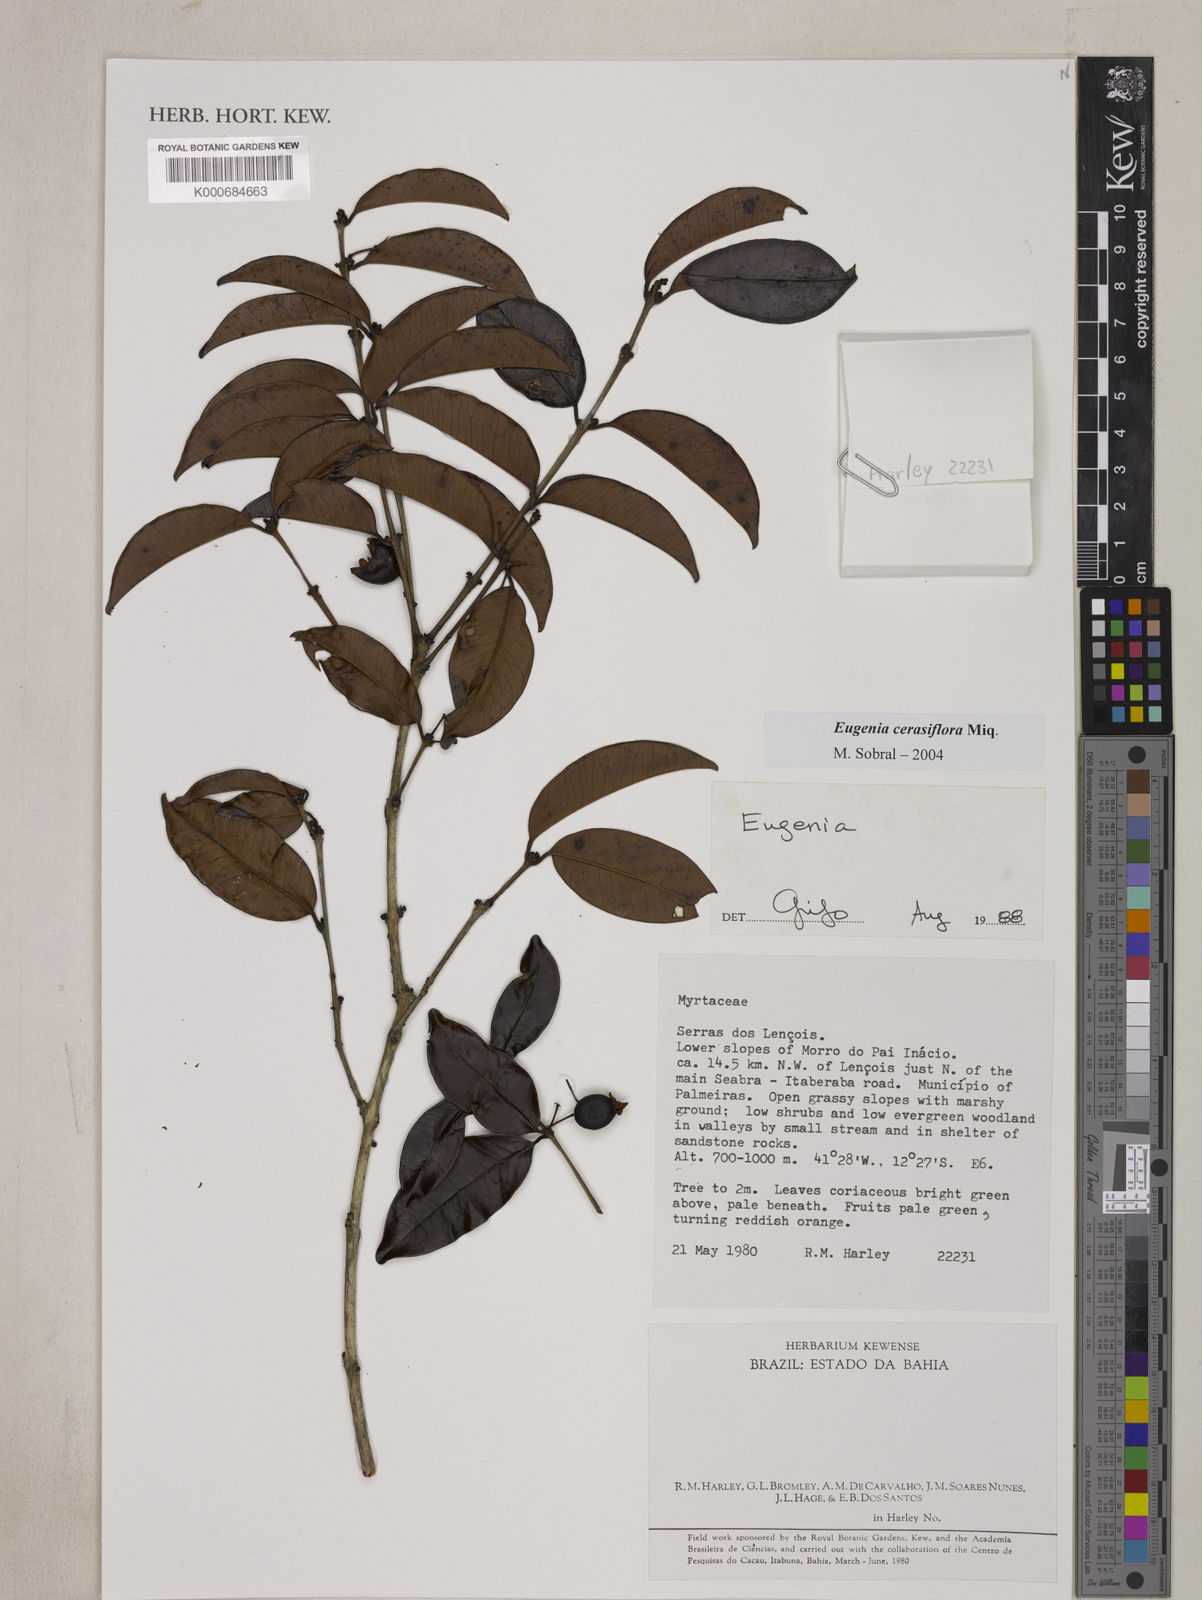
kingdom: Plantae
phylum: Tracheophyta
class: Magnoliopsida
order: Myrtales
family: Myrtaceae
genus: Eugenia
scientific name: Eugenia cerasiflora
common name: Cherry-of-the-rio-grande
